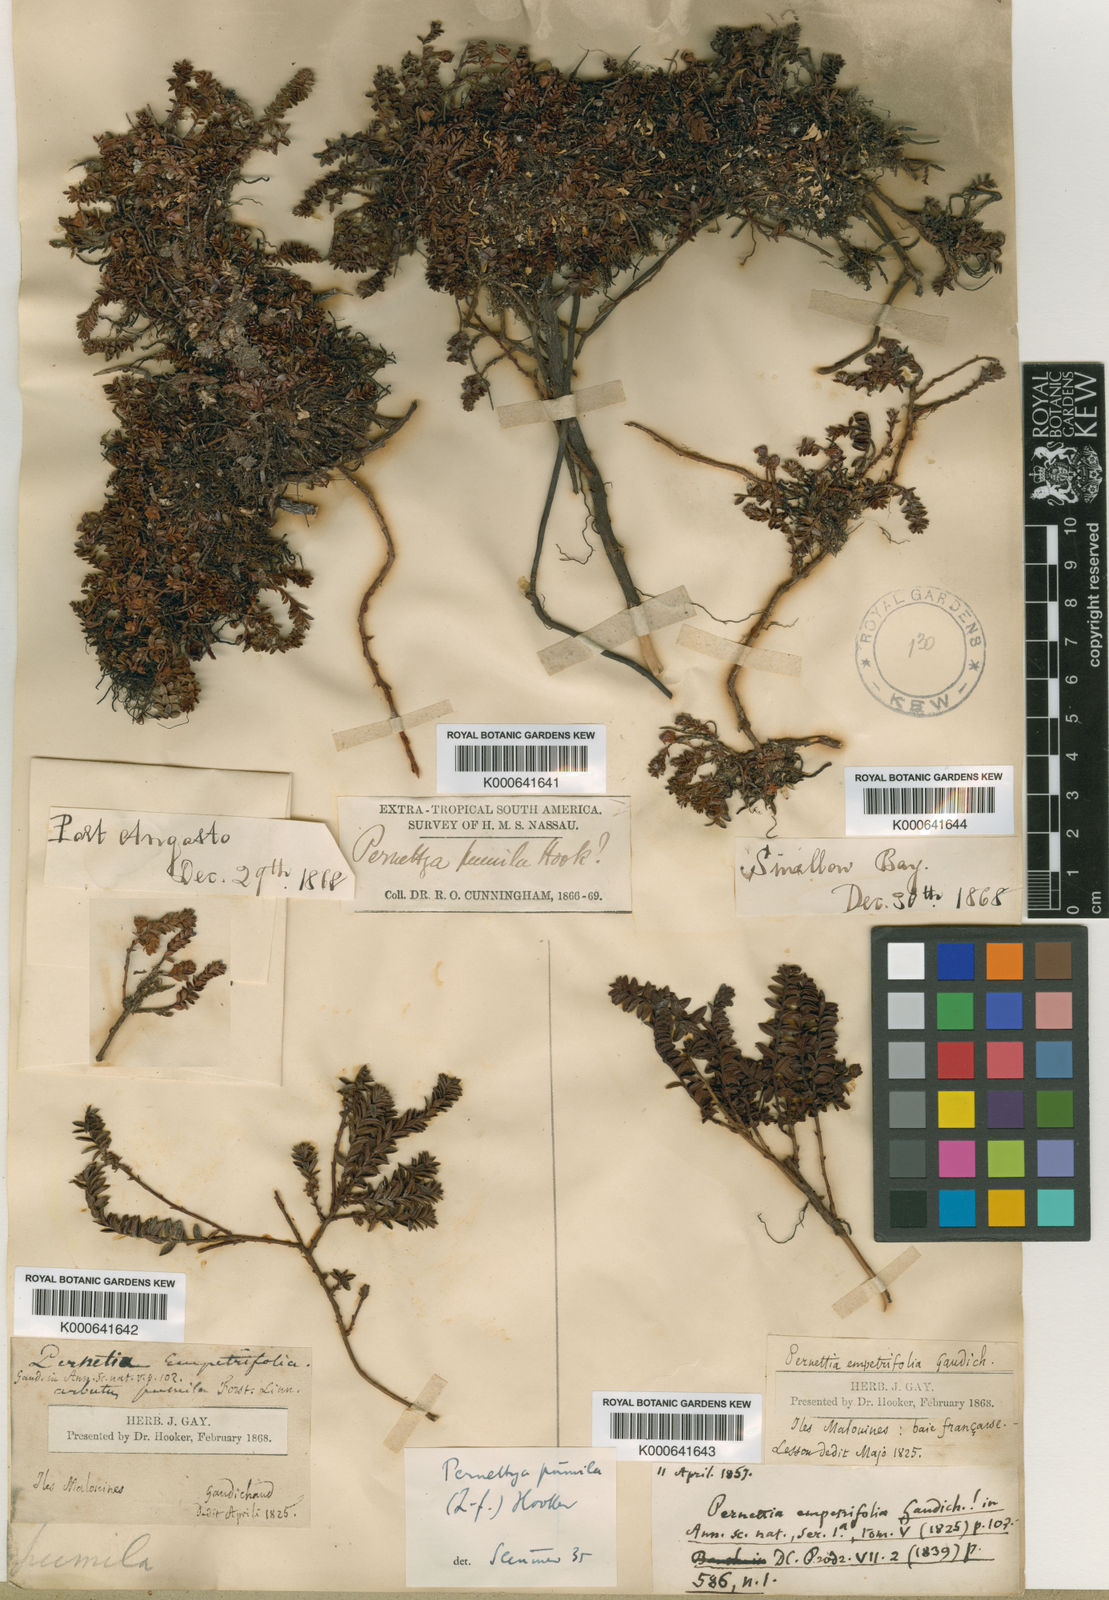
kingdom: Plantae
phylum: Tracheophyta
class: Magnoliopsida
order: Ericales
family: Ericaceae
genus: Gaultheria
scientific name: Gaultheria pumila
